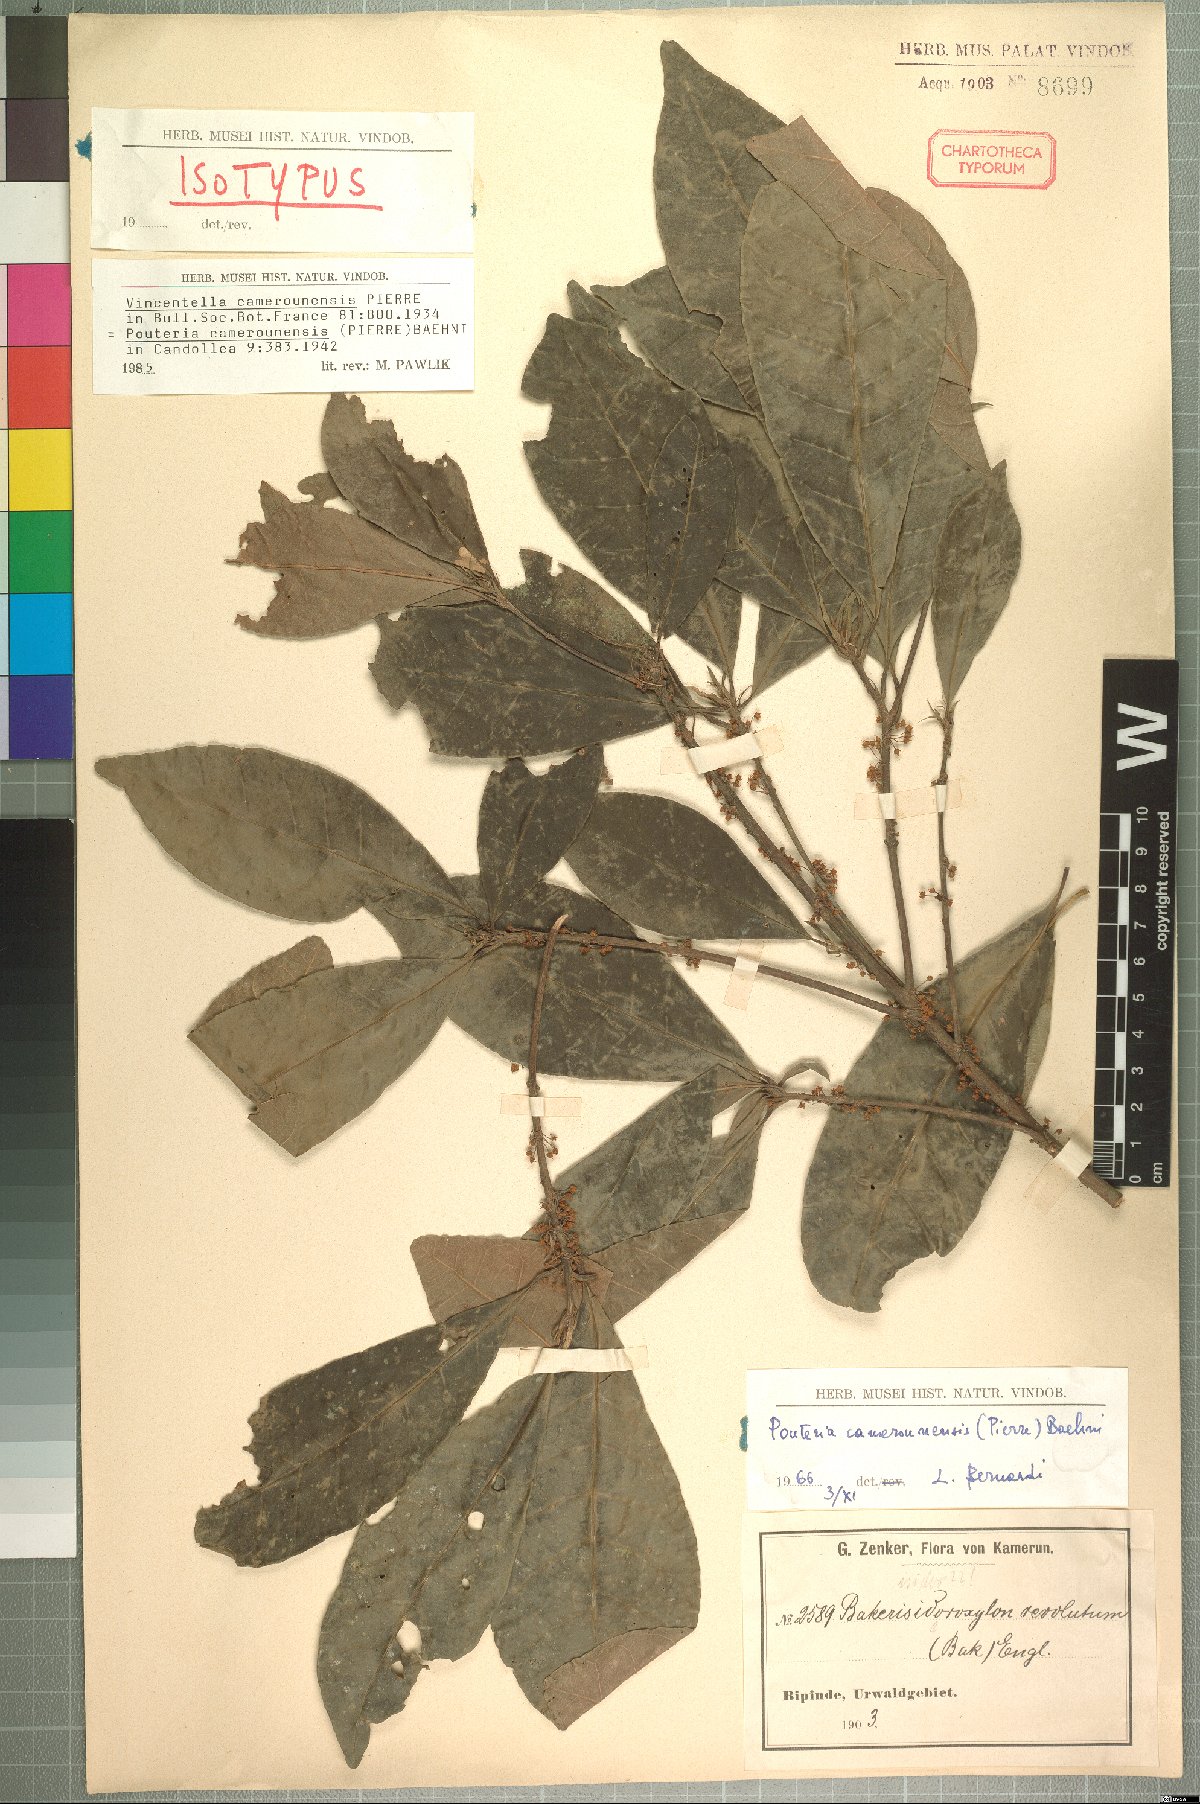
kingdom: Plantae
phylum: Tracheophyta
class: Magnoliopsida
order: Ericales
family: Sapotaceae
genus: Synsepalum
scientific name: Synsepalum revolutum
